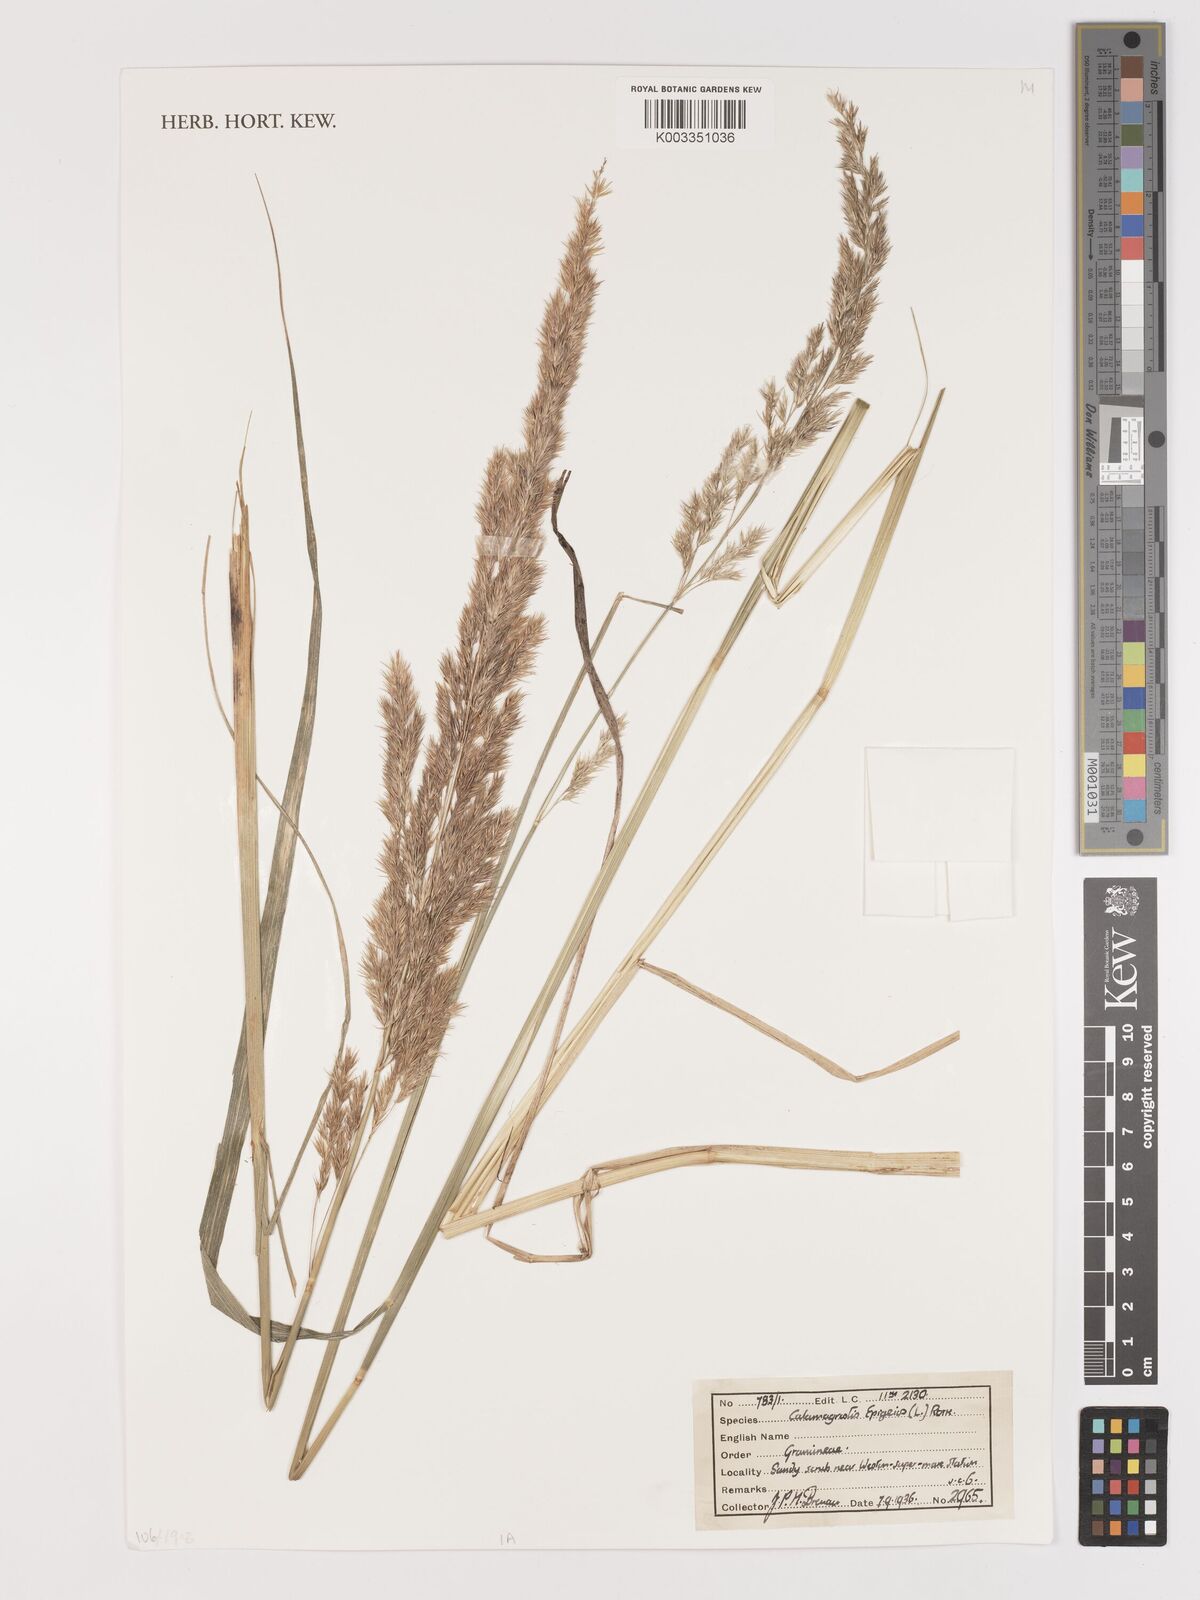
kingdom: Plantae
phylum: Tracheophyta
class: Liliopsida
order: Poales
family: Poaceae
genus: Calamagrostis
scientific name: Calamagrostis epigejos
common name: Wood small-reed
